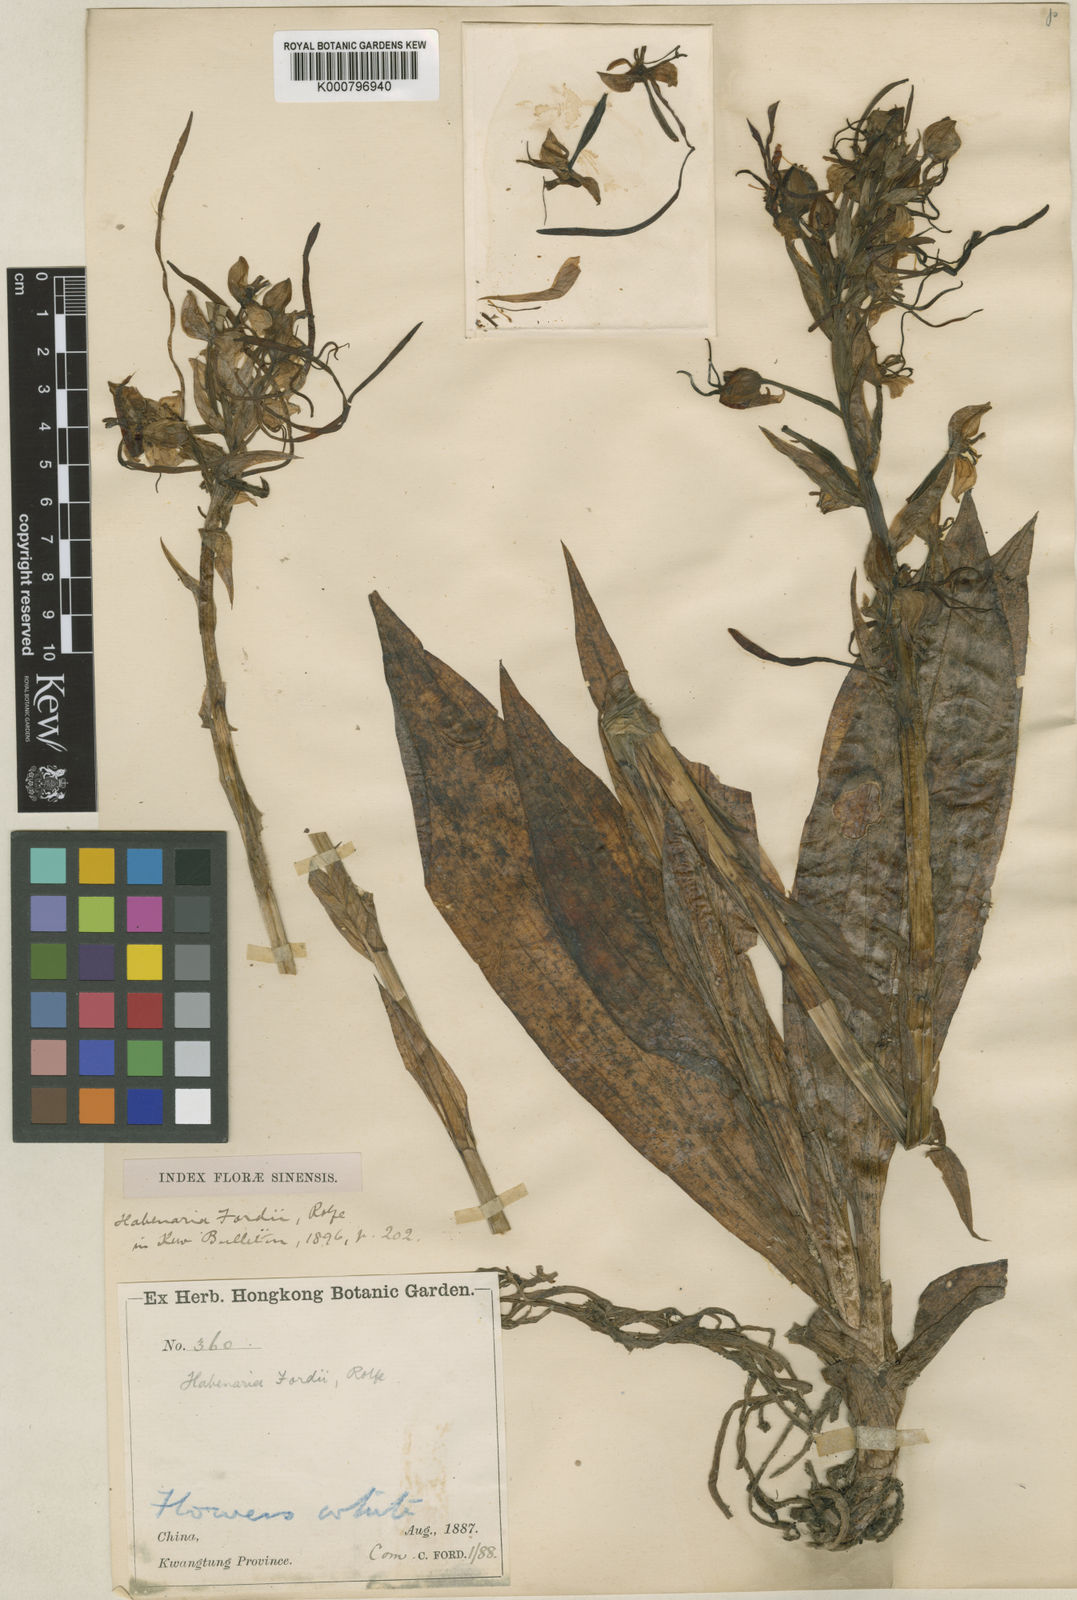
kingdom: Plantae
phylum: Tracheophyta
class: Liliopsida
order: Asparagales
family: Orchidaceae
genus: Habenaria
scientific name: Habenaria fordii
